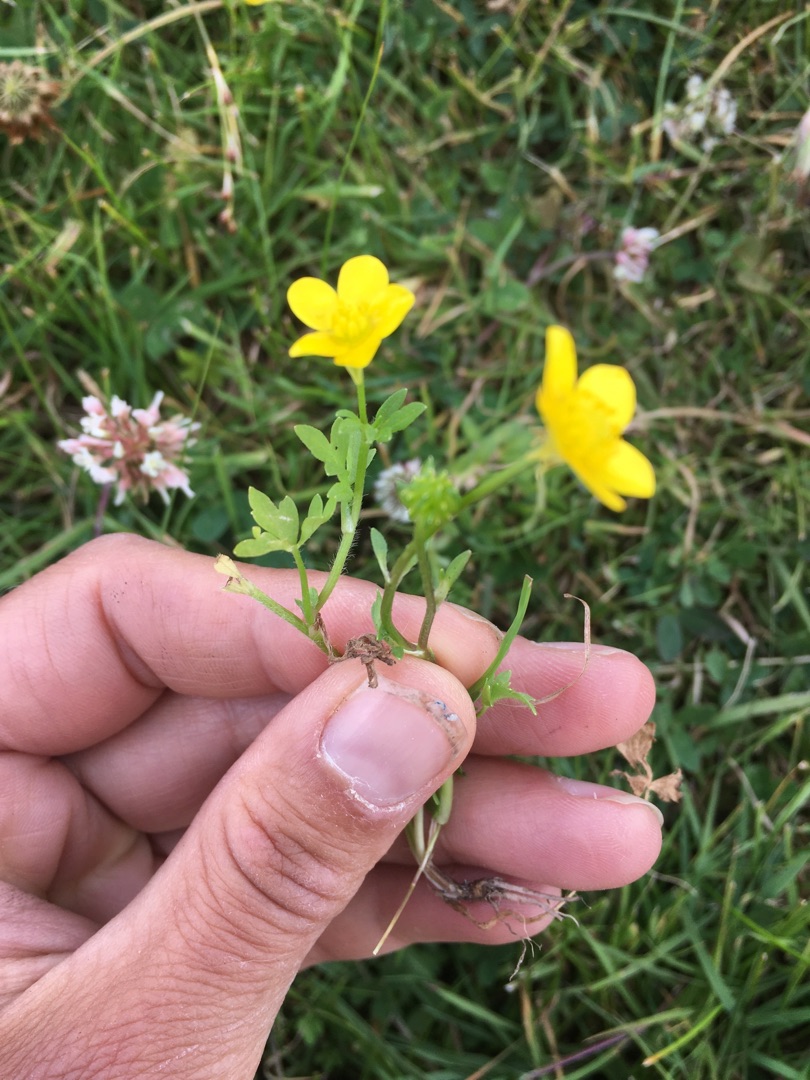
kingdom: Plantae
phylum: Tracheophyta
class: Magnoliopsida
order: Ranunculales
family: Ranunculaceae
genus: Ranunculus
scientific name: Ranunculus sardous
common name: Stivhåret ranunkel
